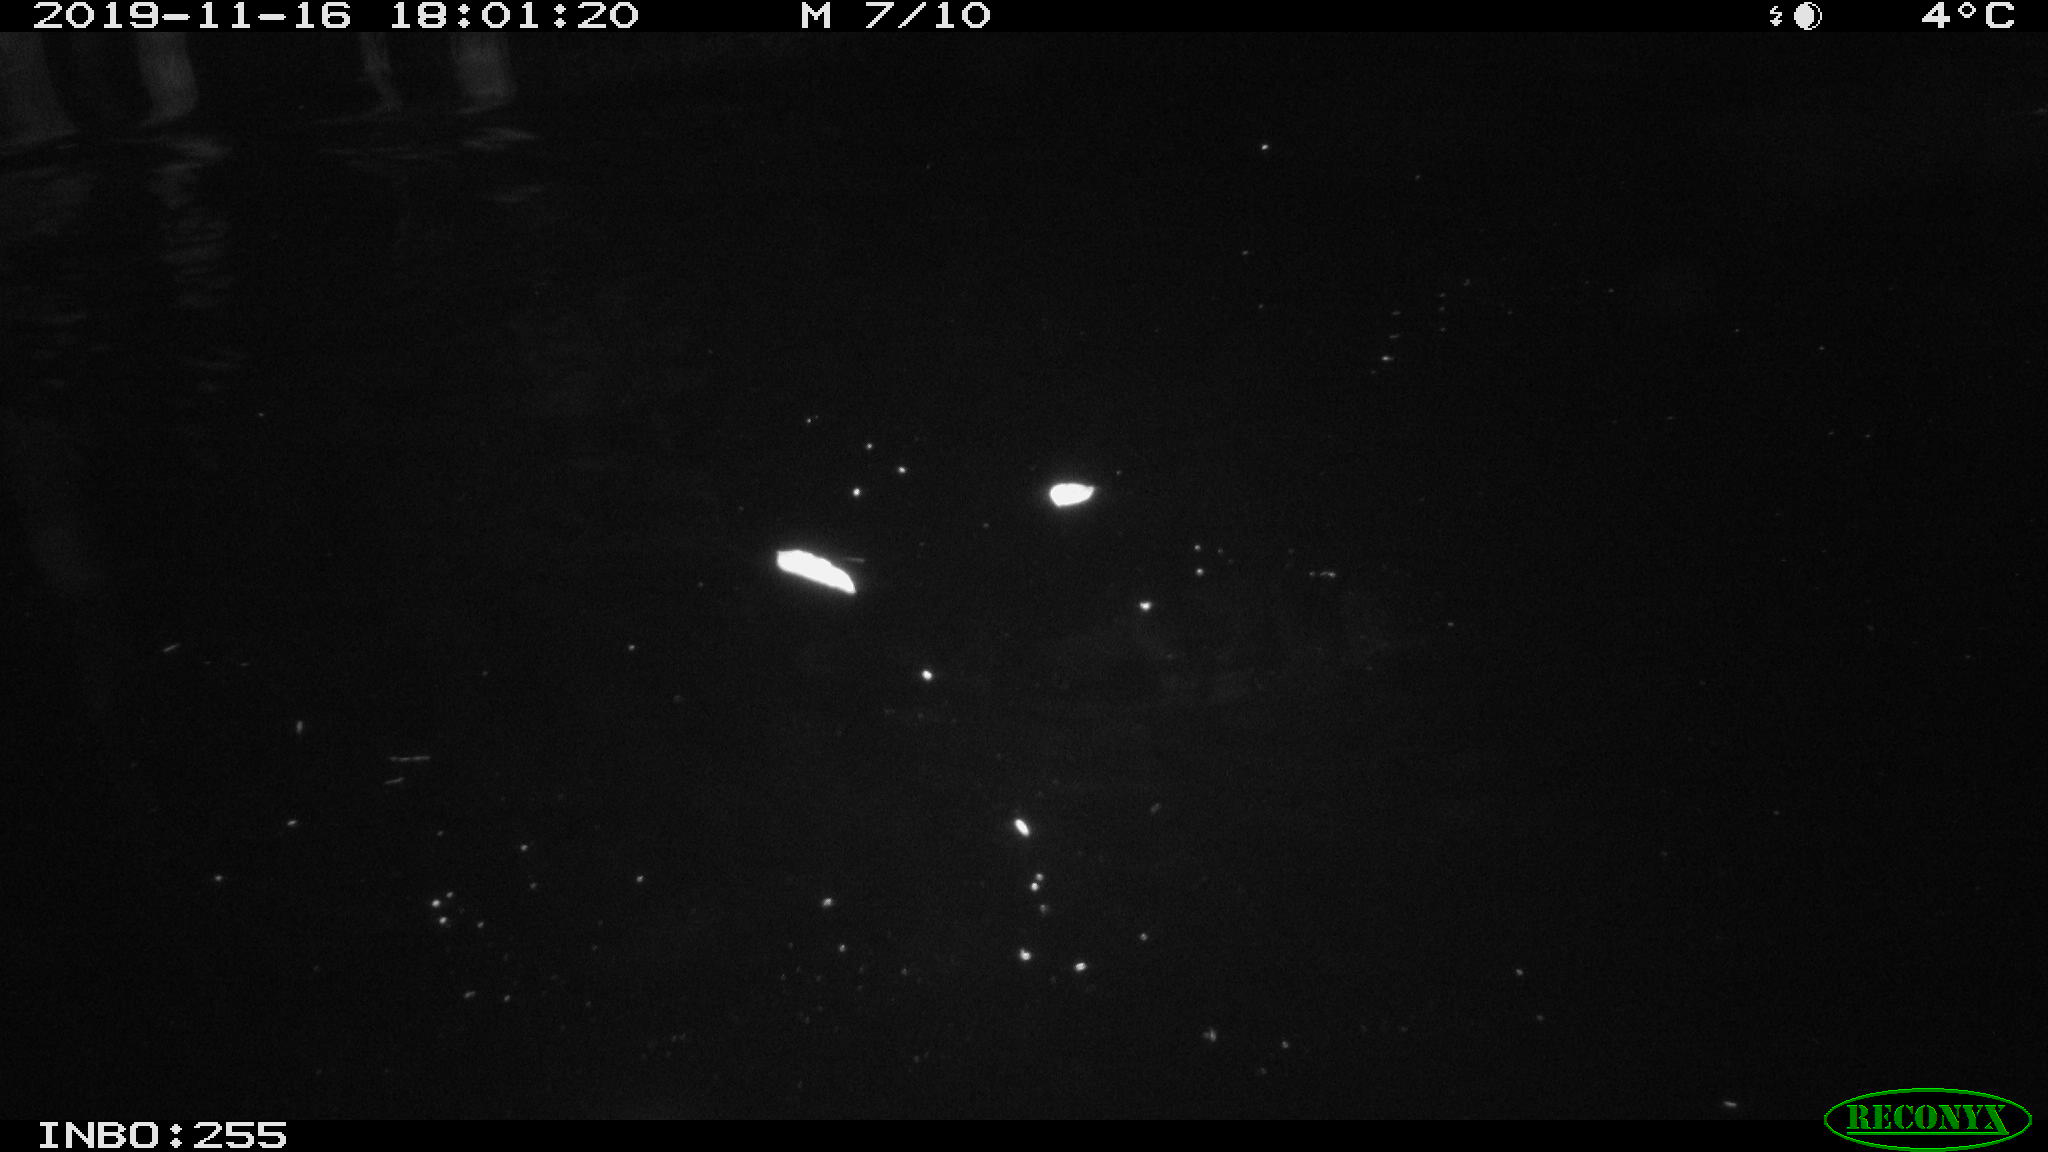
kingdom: Animalia
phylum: Chordata
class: Mammalia
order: Rodentia
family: Muridae
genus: Rattus
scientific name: Rattus norvegicus
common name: Brown rat
